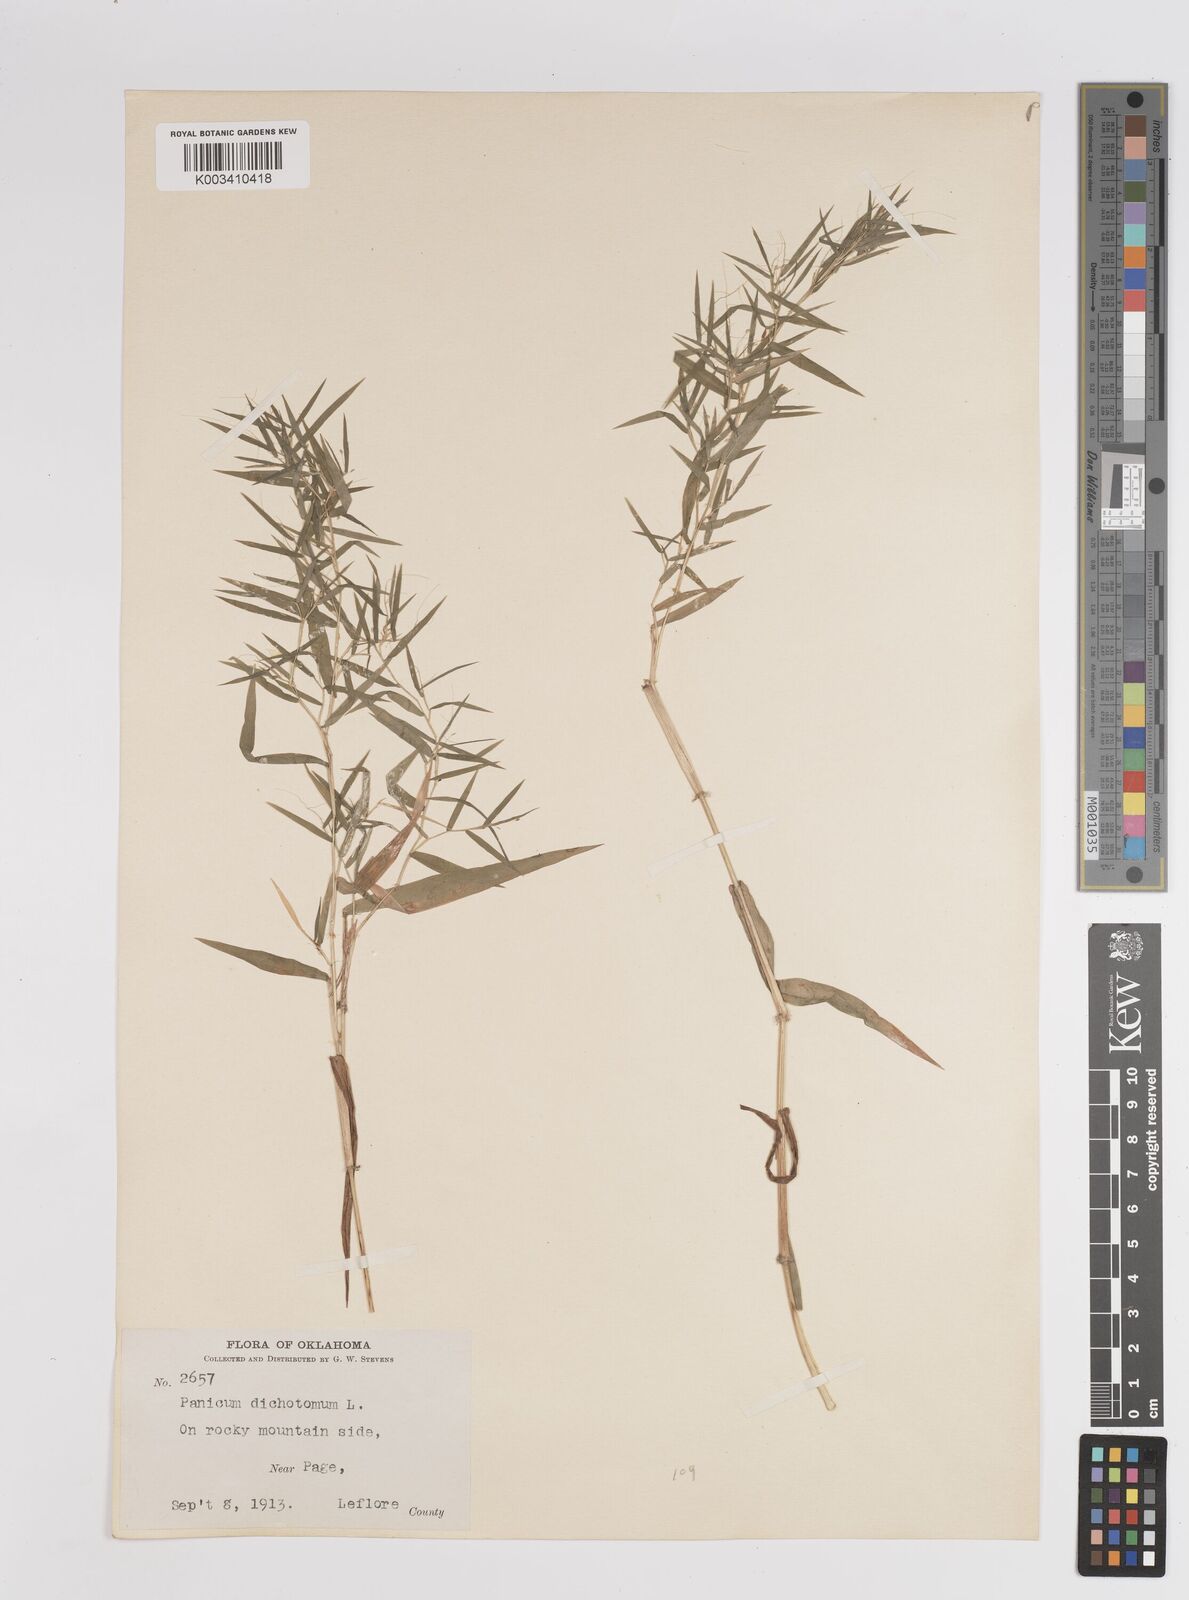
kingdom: Plantae
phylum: Tracheophyta
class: Liliopsida
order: Poales
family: Poaceae
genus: Dichanthelium
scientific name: Dichanthelium dichotomum
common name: Cypress panicgrass
